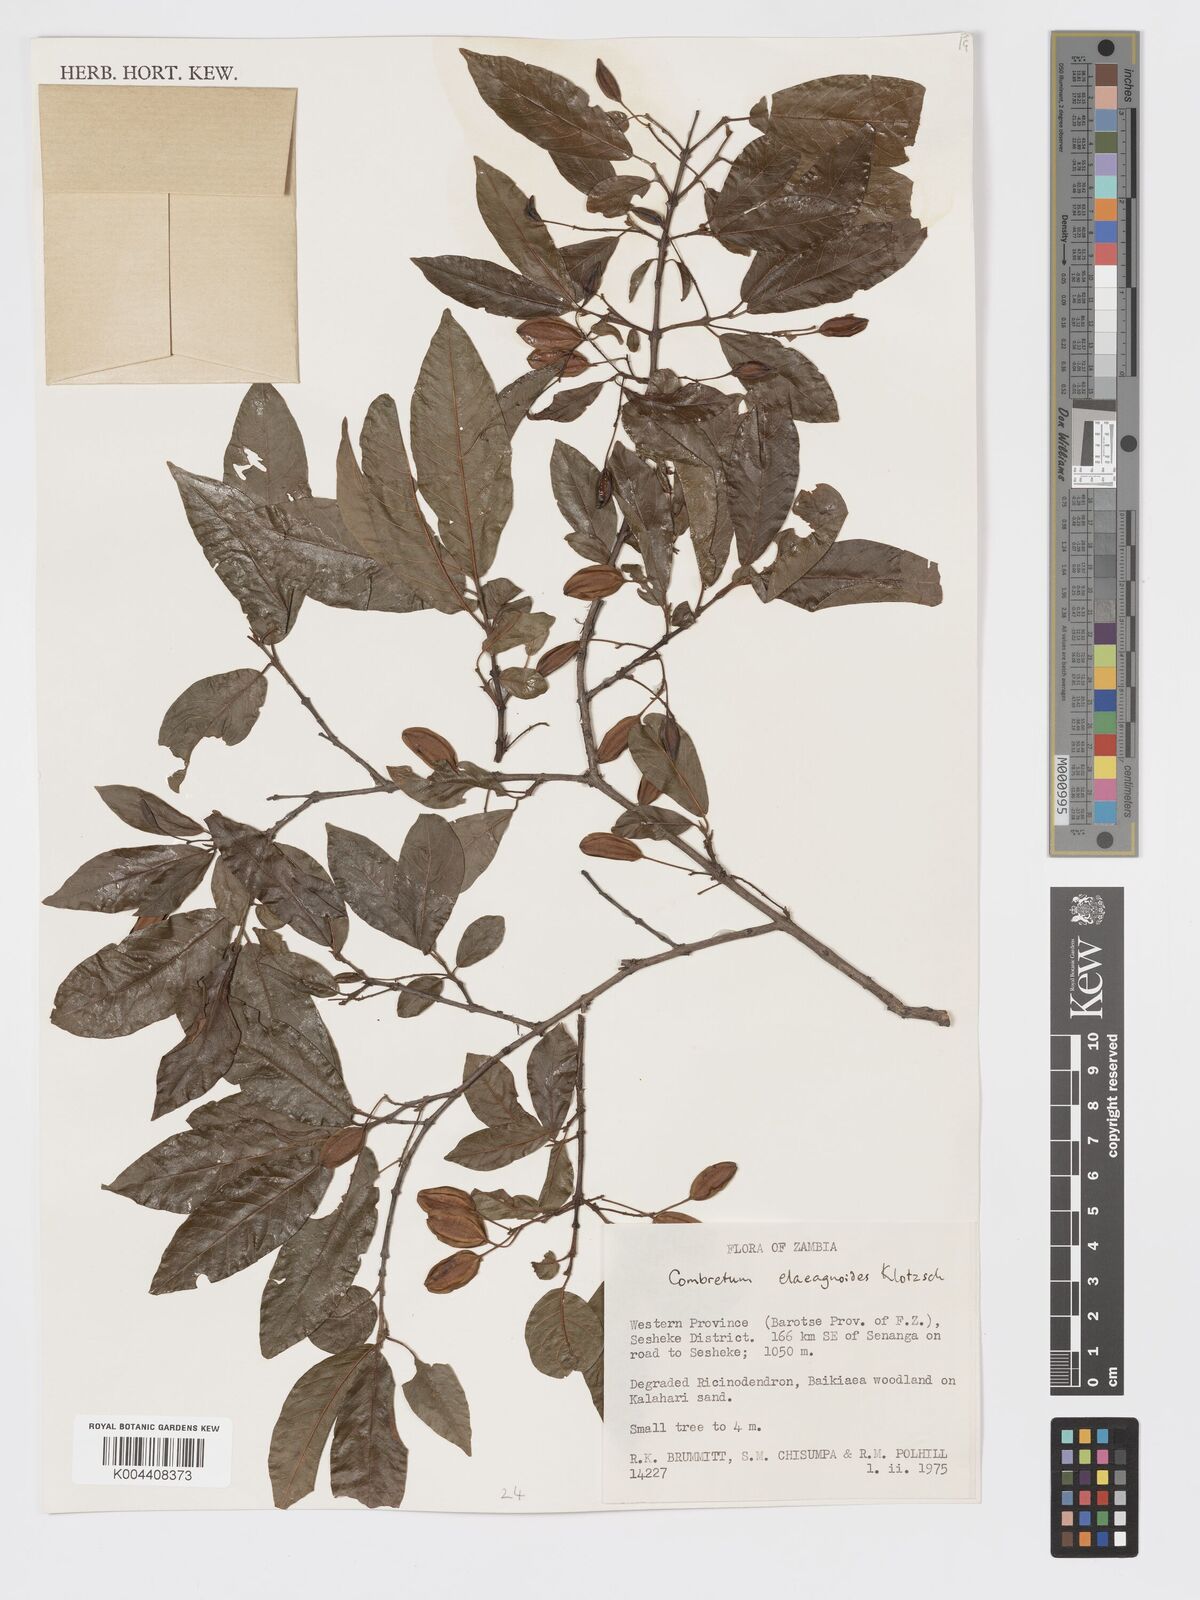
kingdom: Plantae
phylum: Tracheophyta
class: Magnoliopsida
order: Myrtales
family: Combretaceae
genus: Combretum
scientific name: Combretum elaeagnoides
